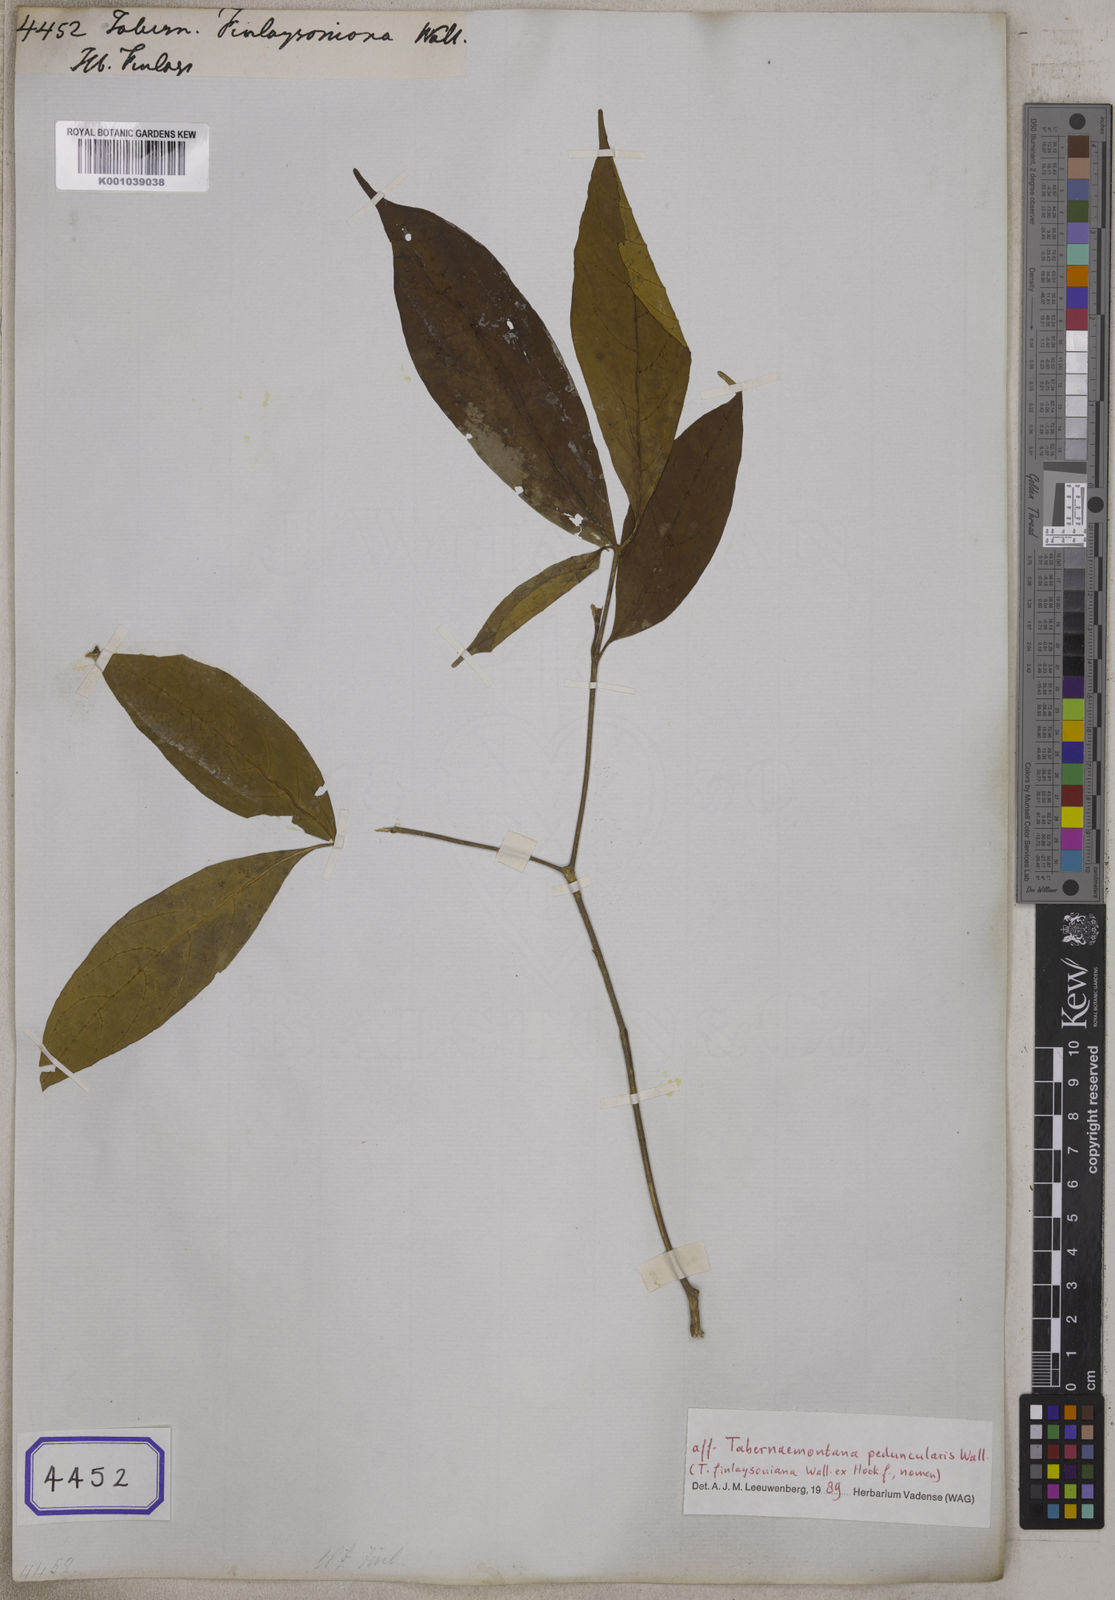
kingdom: Plantae
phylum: Tracheophyta
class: Magnoliopsida
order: Gentianales
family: Apocynaceae
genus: Tabernaemontana
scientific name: Tabernaemontana
